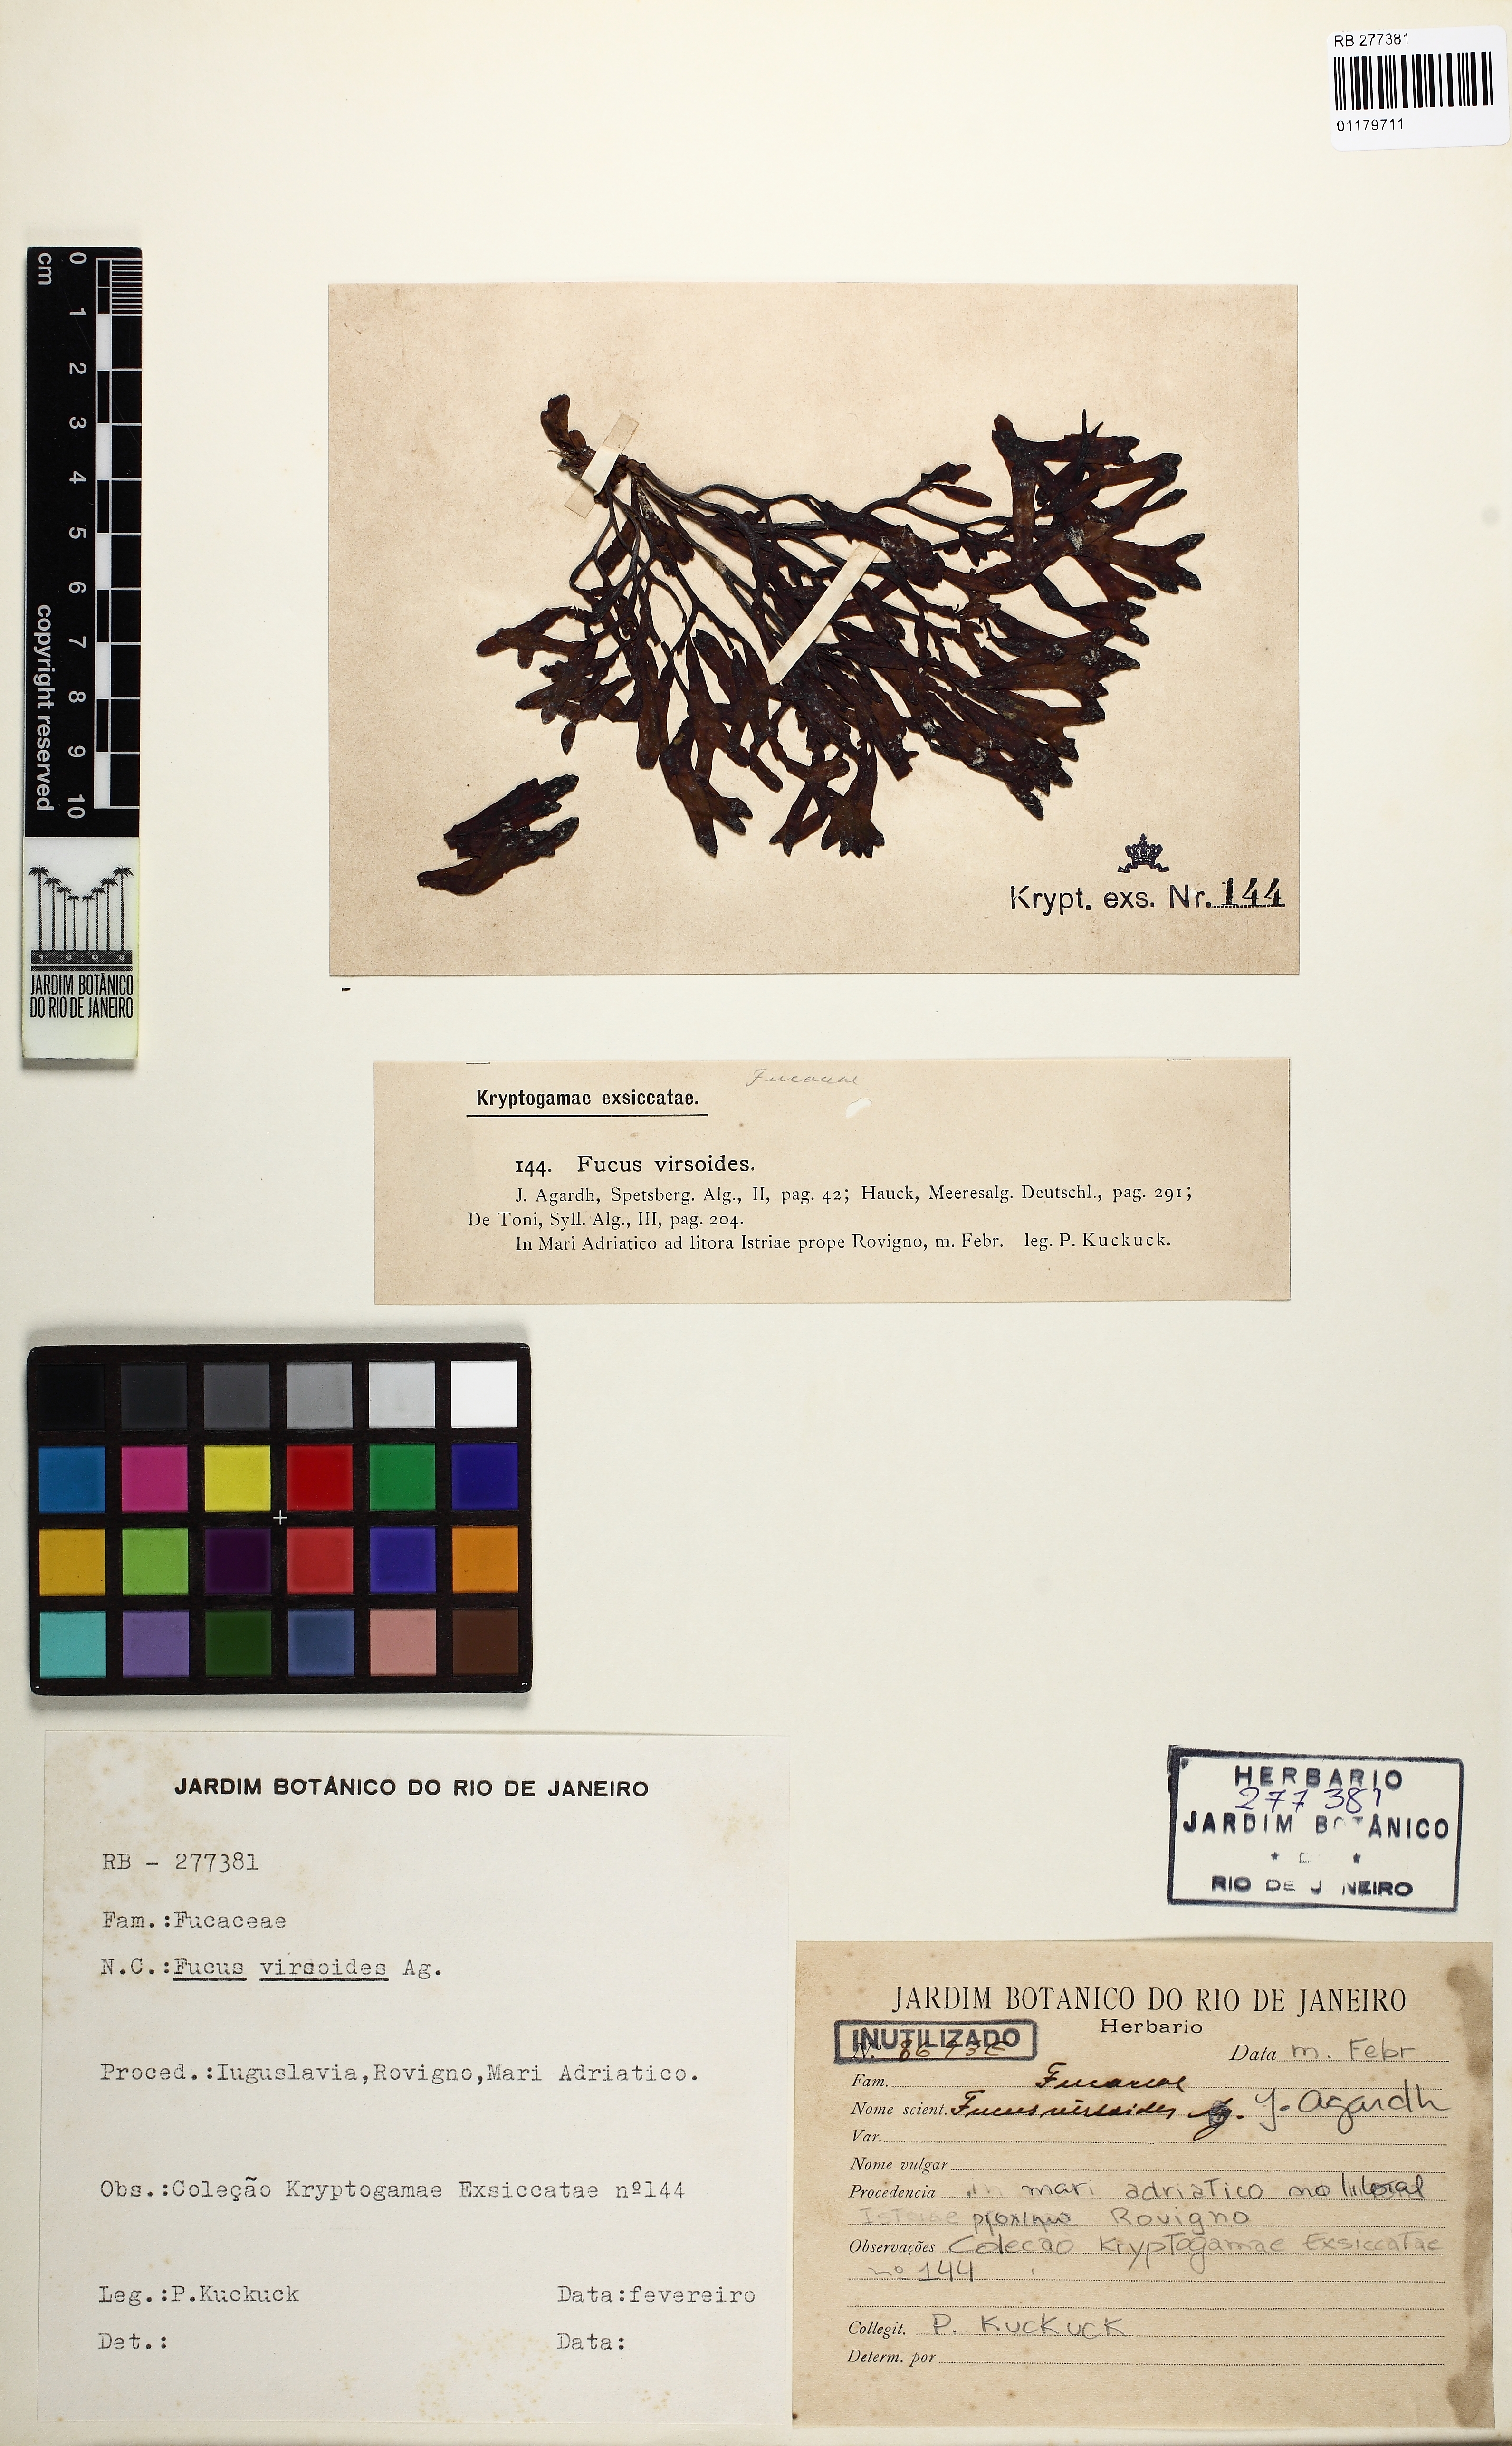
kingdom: Chromista
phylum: Ochrophyta
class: Phaeophyceae
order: Fucales
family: Fucaceae
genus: Fucus
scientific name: Fucus virsoides
